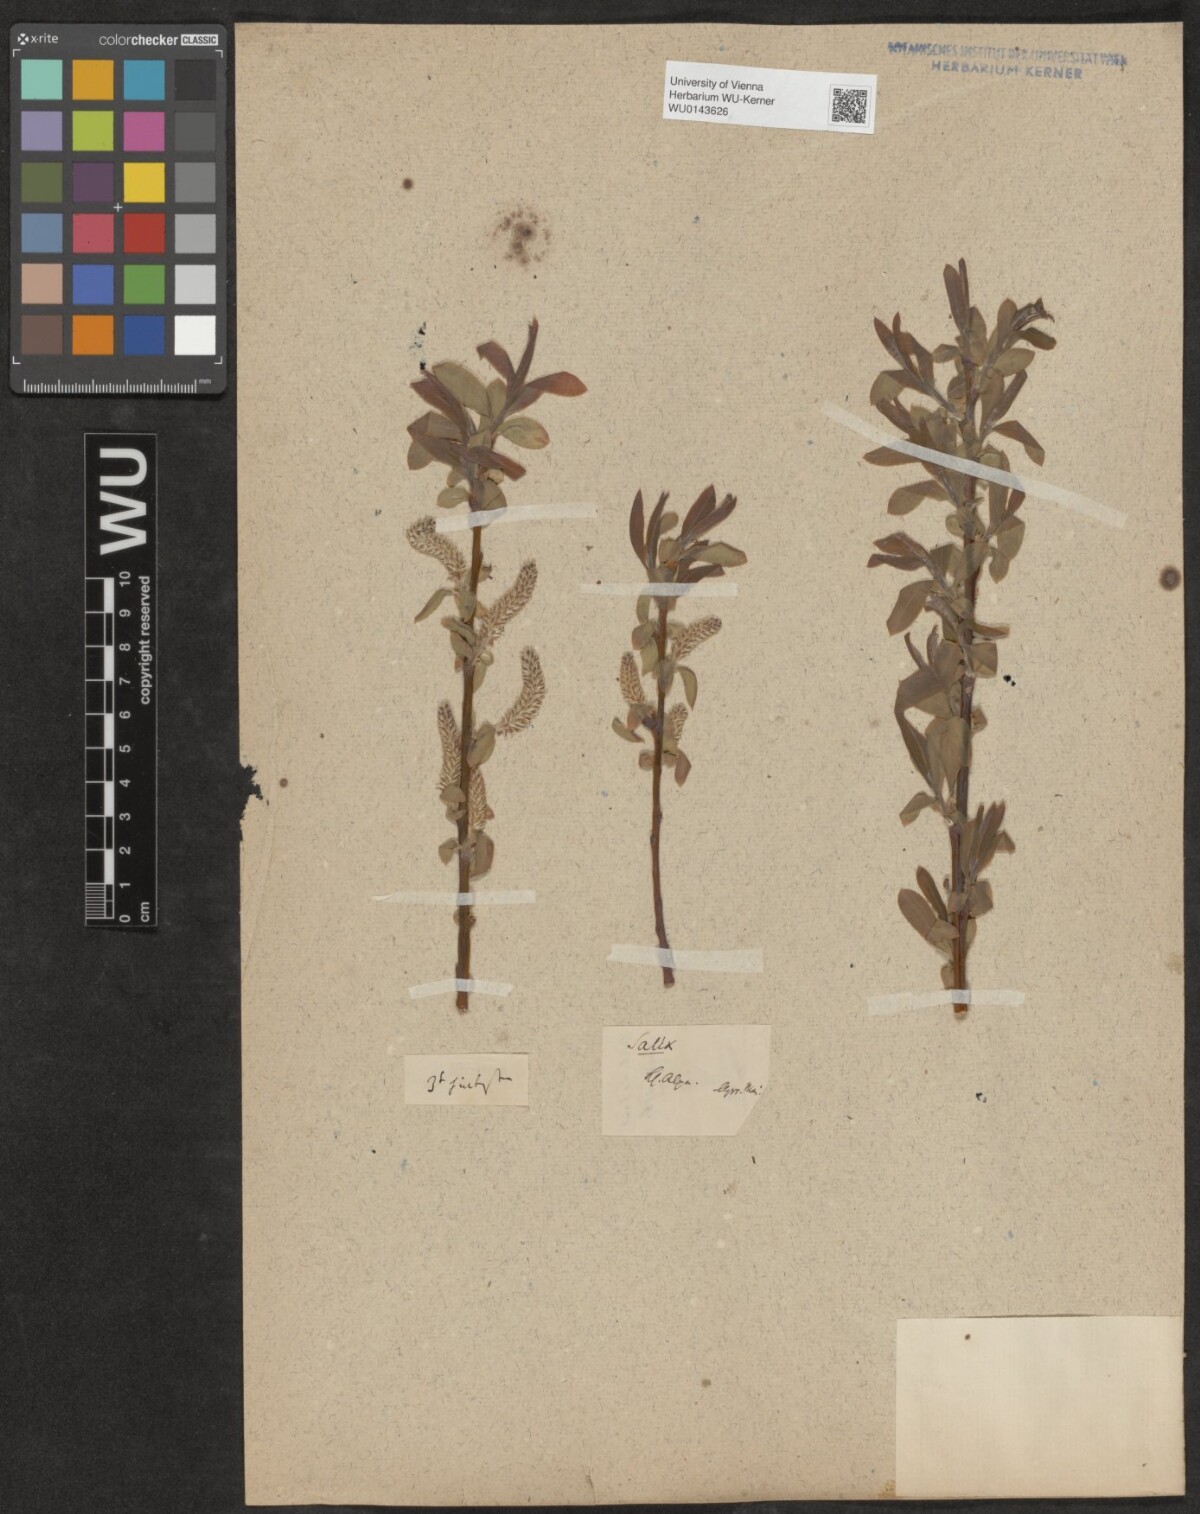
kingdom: Plantae
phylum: Tracheophyta
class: Magnoliopsida
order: Malpighiales
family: Salicaceae
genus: Salix
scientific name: Salix
